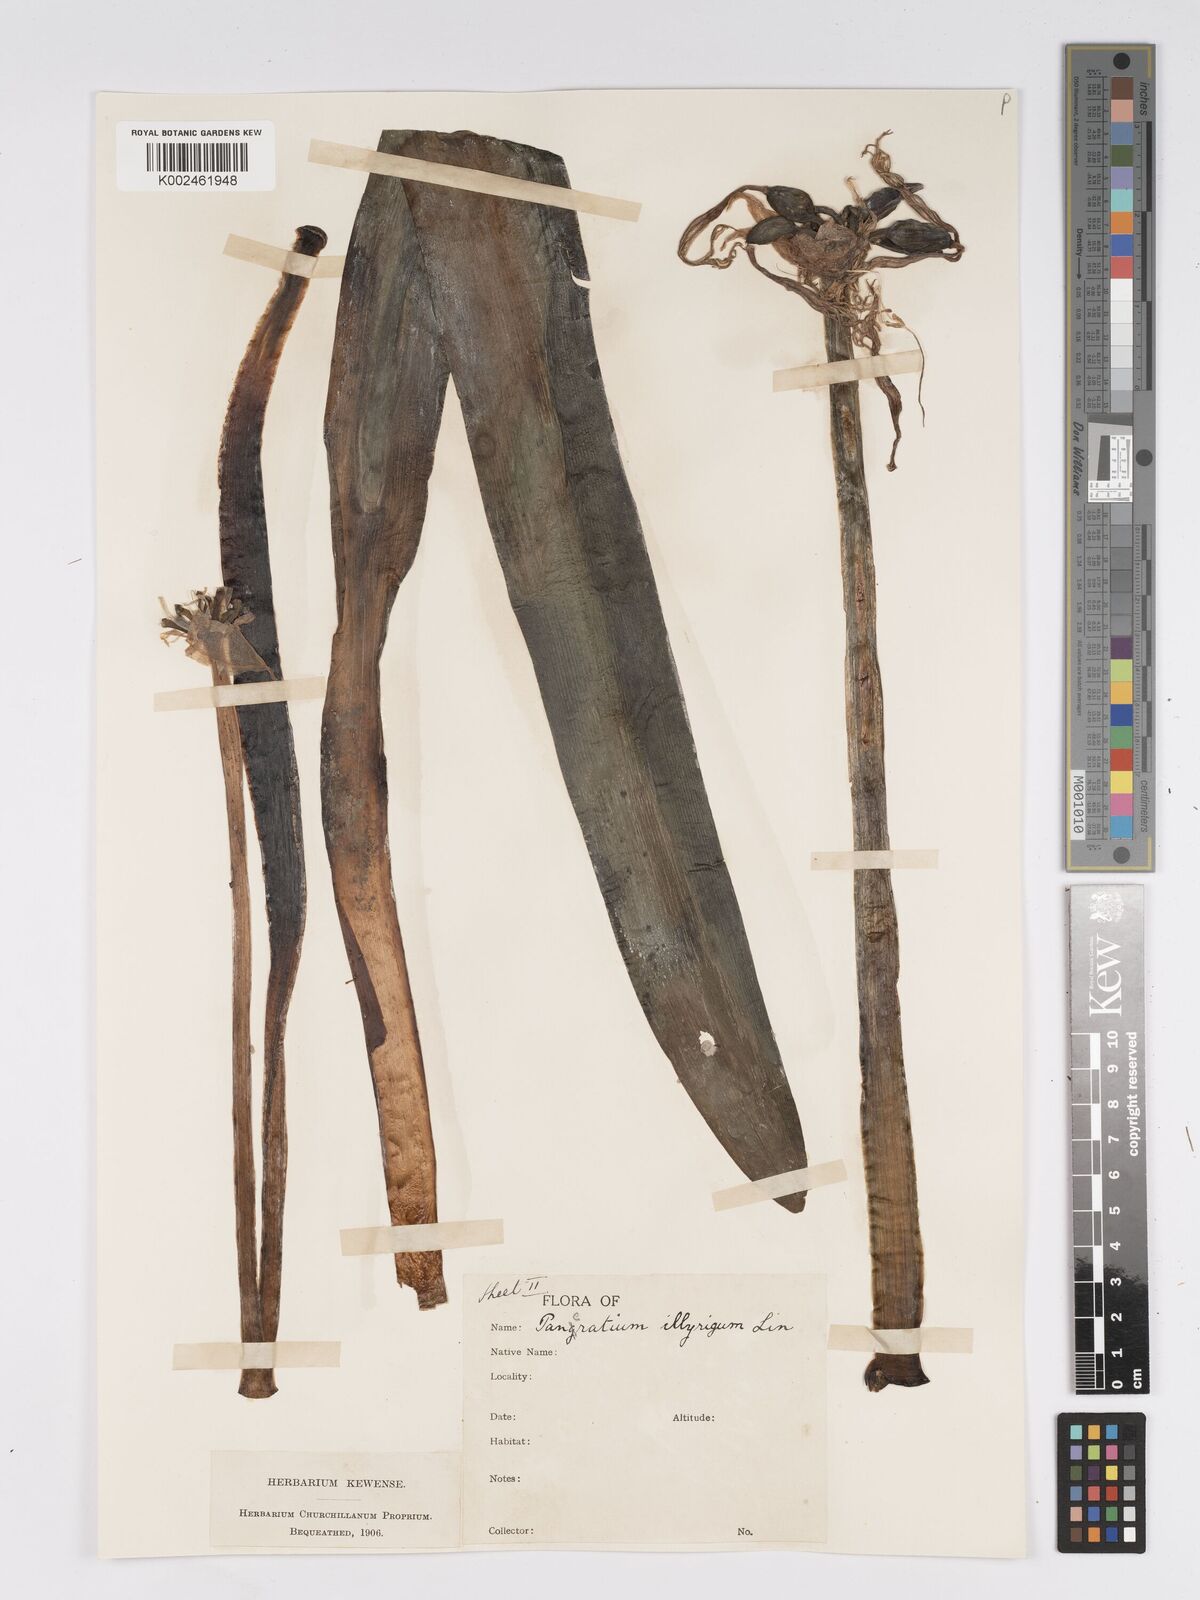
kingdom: Plantae
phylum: Tracheophyta
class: Liliopsida
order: Asparagales
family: Amaryllidaceae
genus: Pancratium
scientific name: Pancratium illyricum
